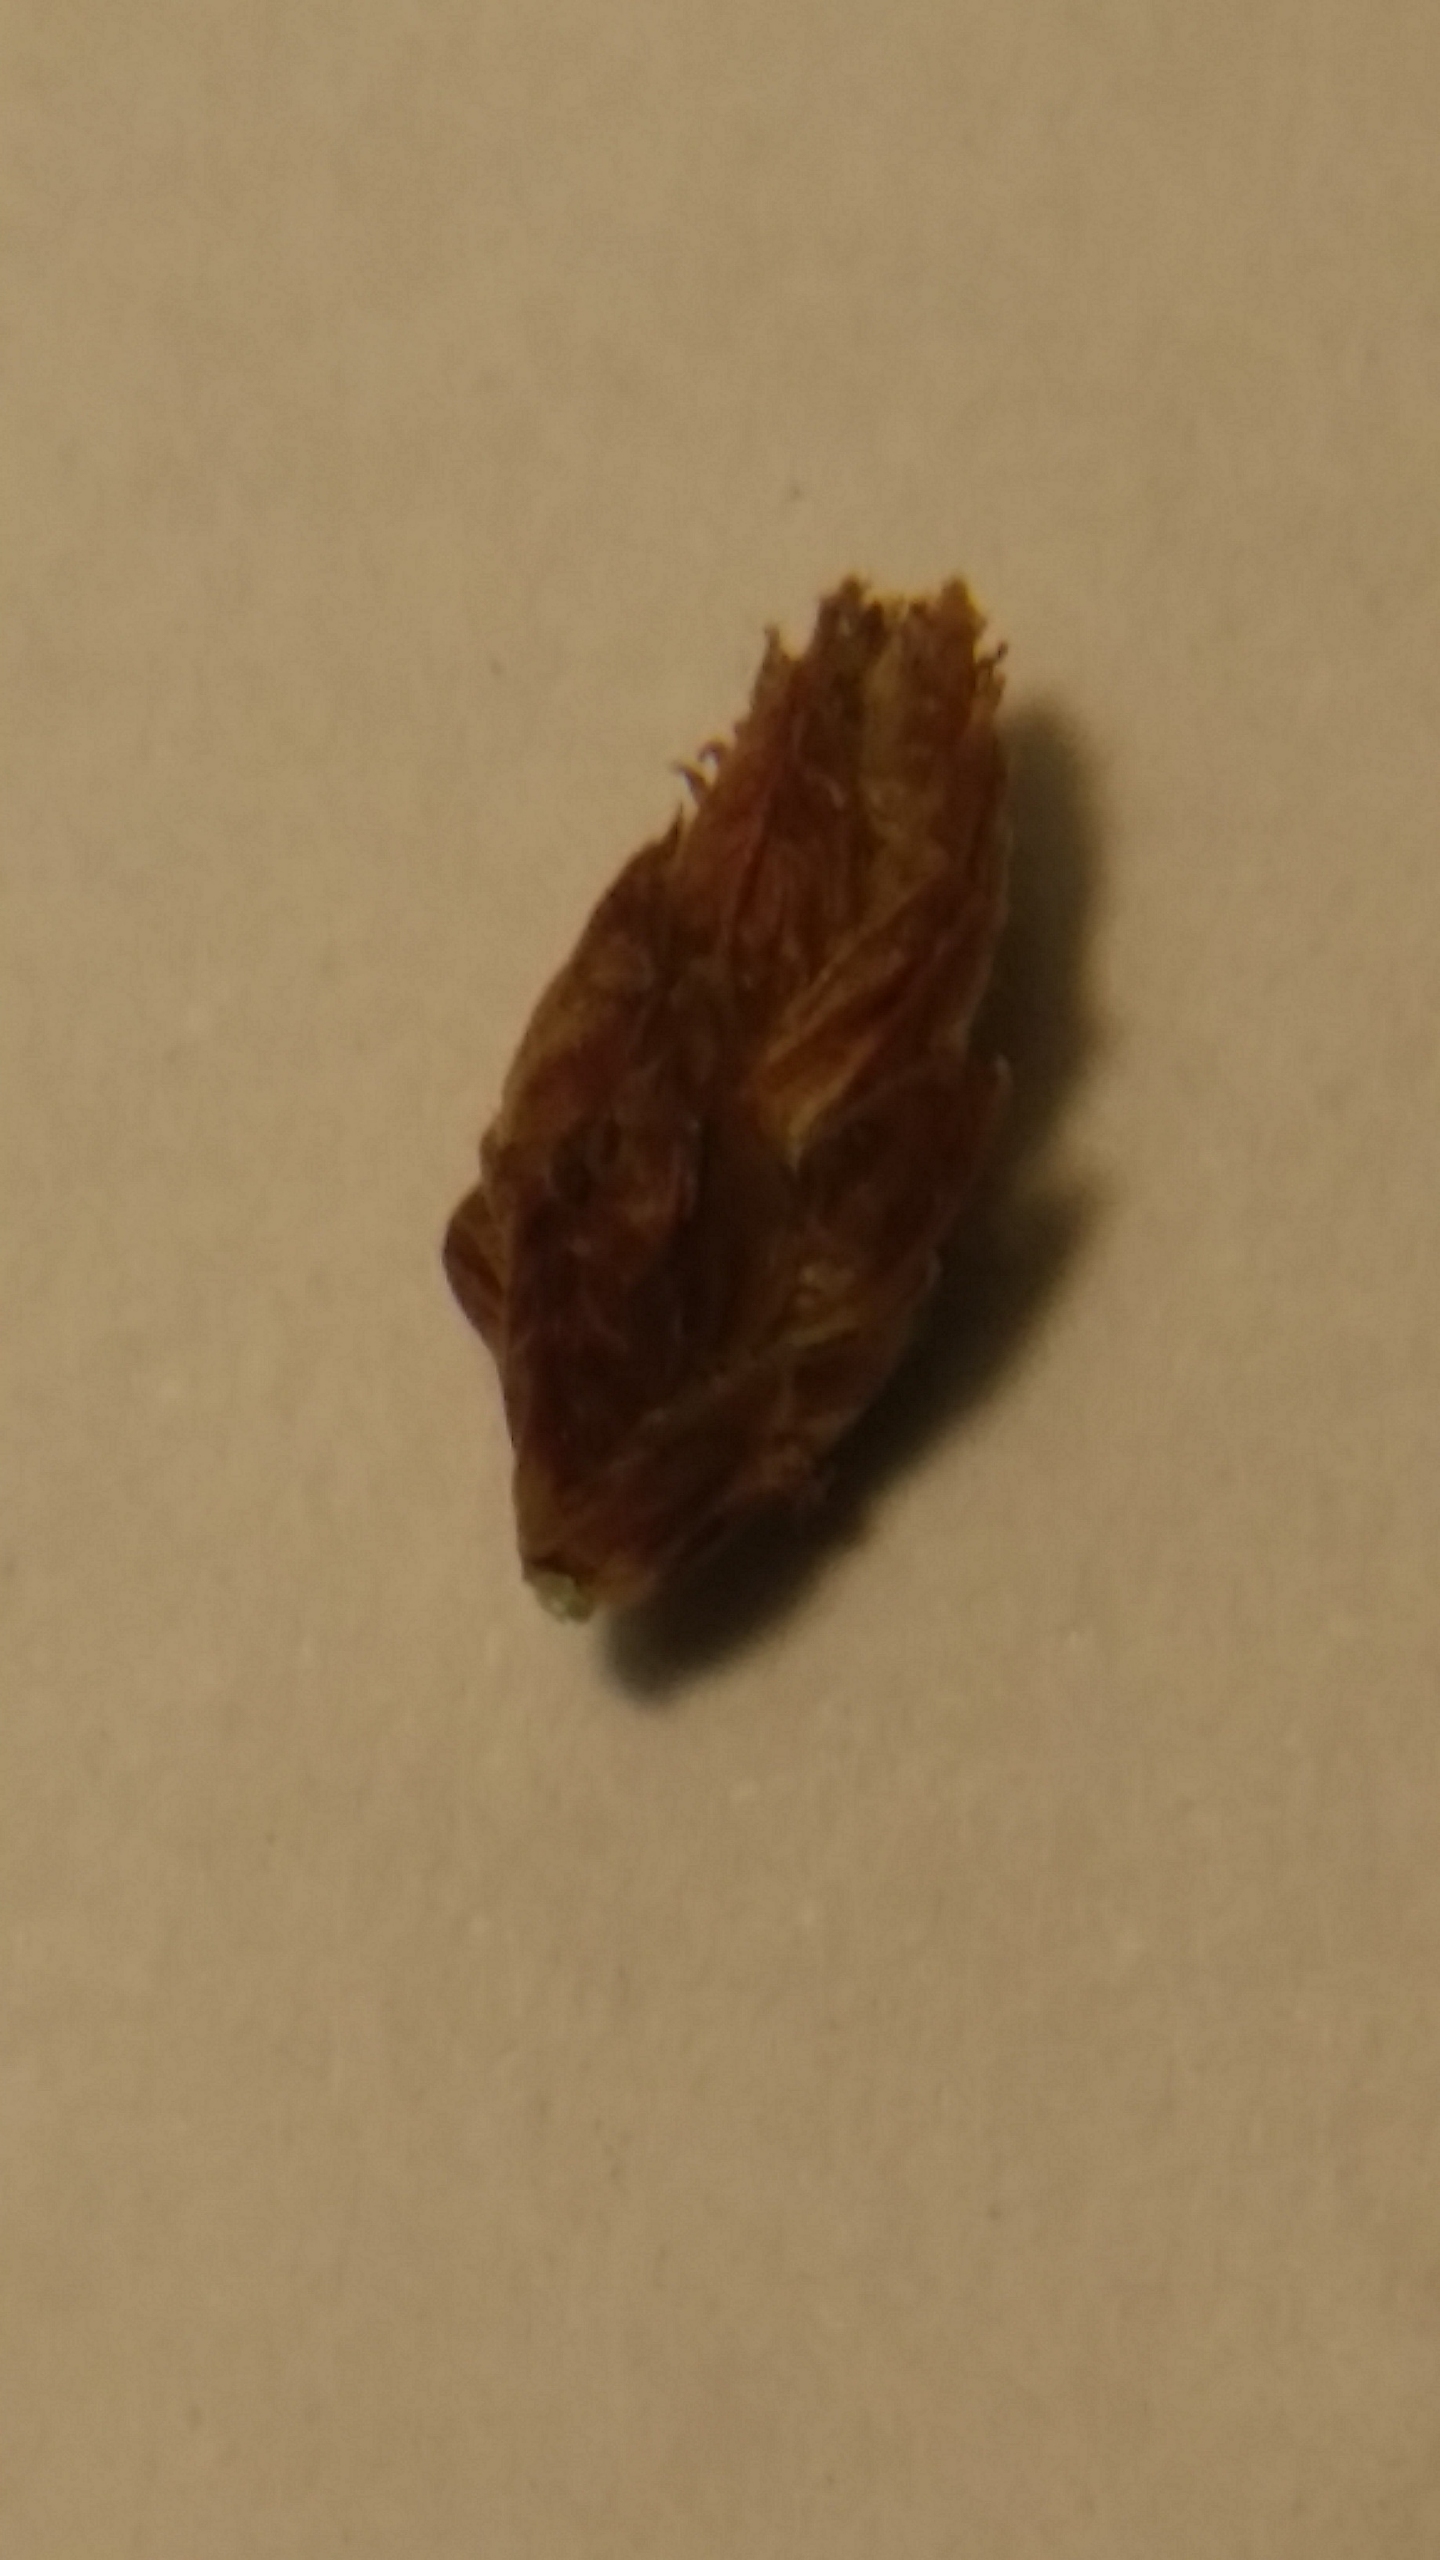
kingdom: Plantae
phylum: Tracheophyta
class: Liliopsida
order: Poales
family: Cyperaceae
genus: Schoenoplectus
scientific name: Schoenoplectus lacustris
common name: Sø-kogleaks
